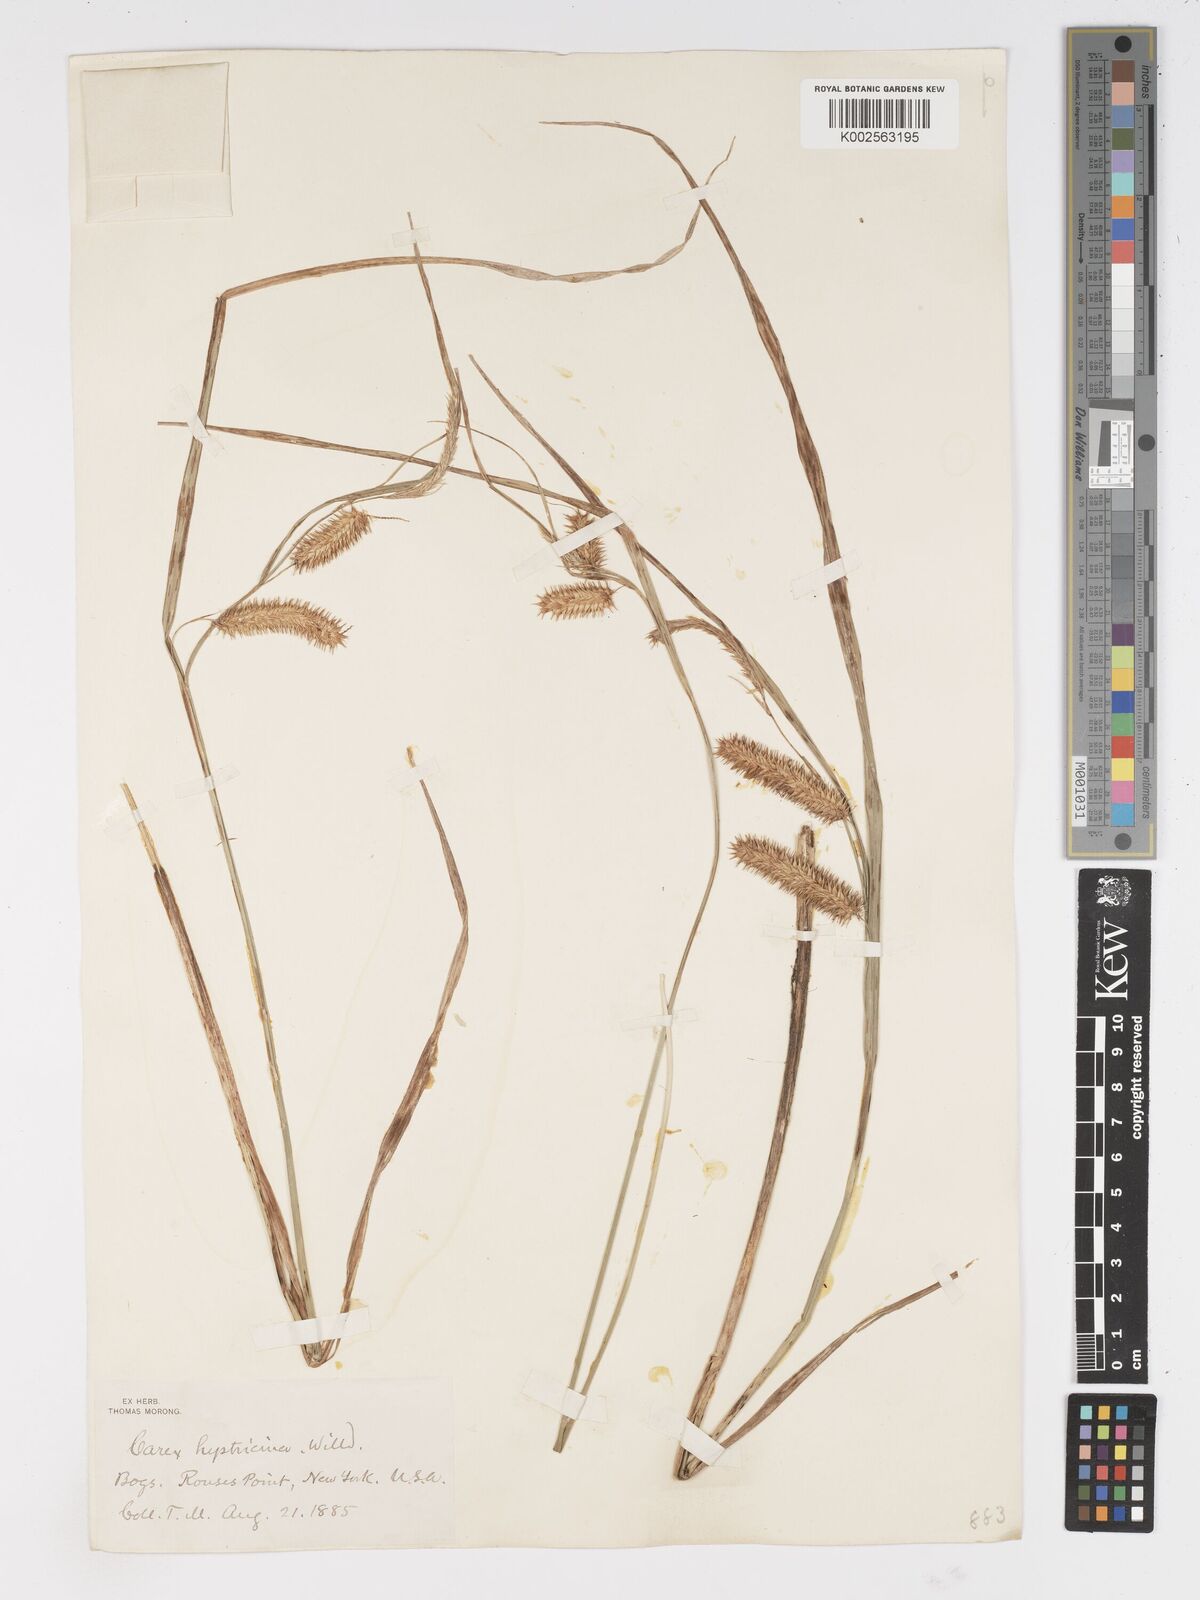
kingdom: Plantae
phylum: Tracheophyta
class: Liliopsida
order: Poales
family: Cyperaceae
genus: Carex
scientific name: Carex hystericina
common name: Bottlebrush sedge
